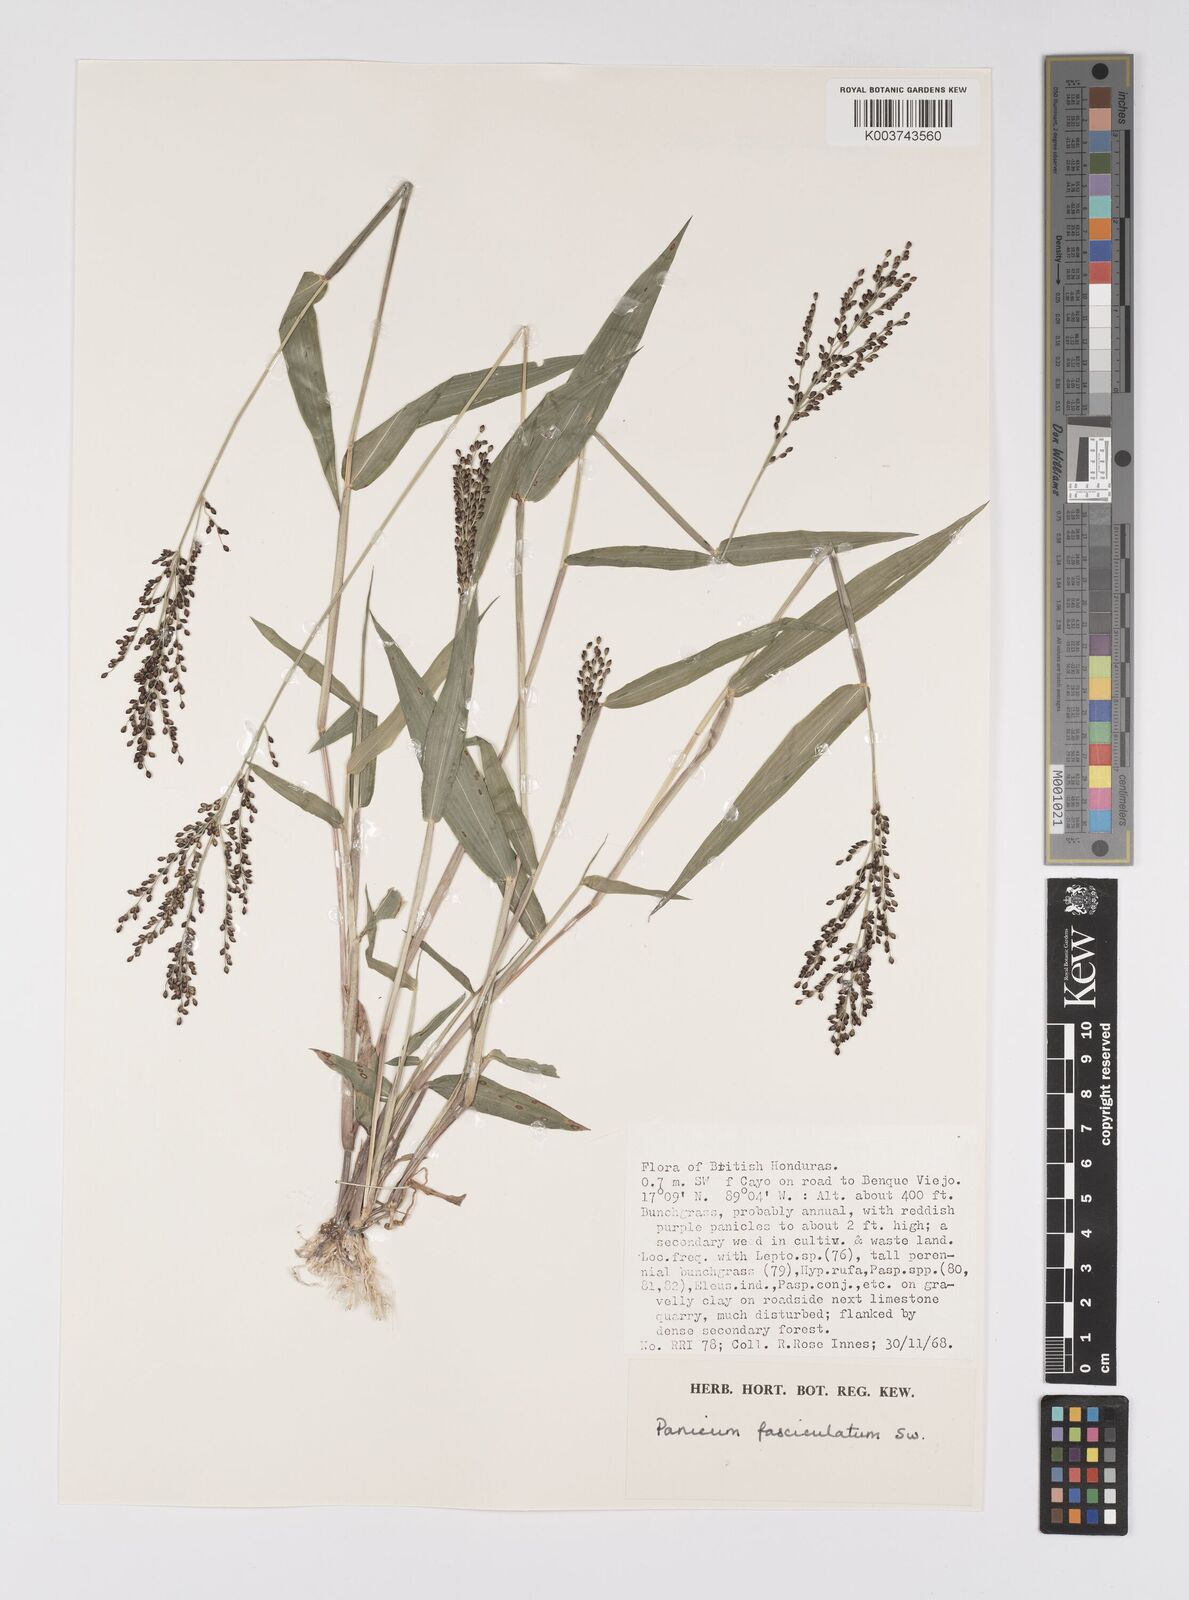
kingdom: Plantae
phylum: Tracheophyta
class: Liliopsida
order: Poales
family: Poaceae
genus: Urochloa
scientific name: Urochloa fusca
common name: Browntop signal grass
